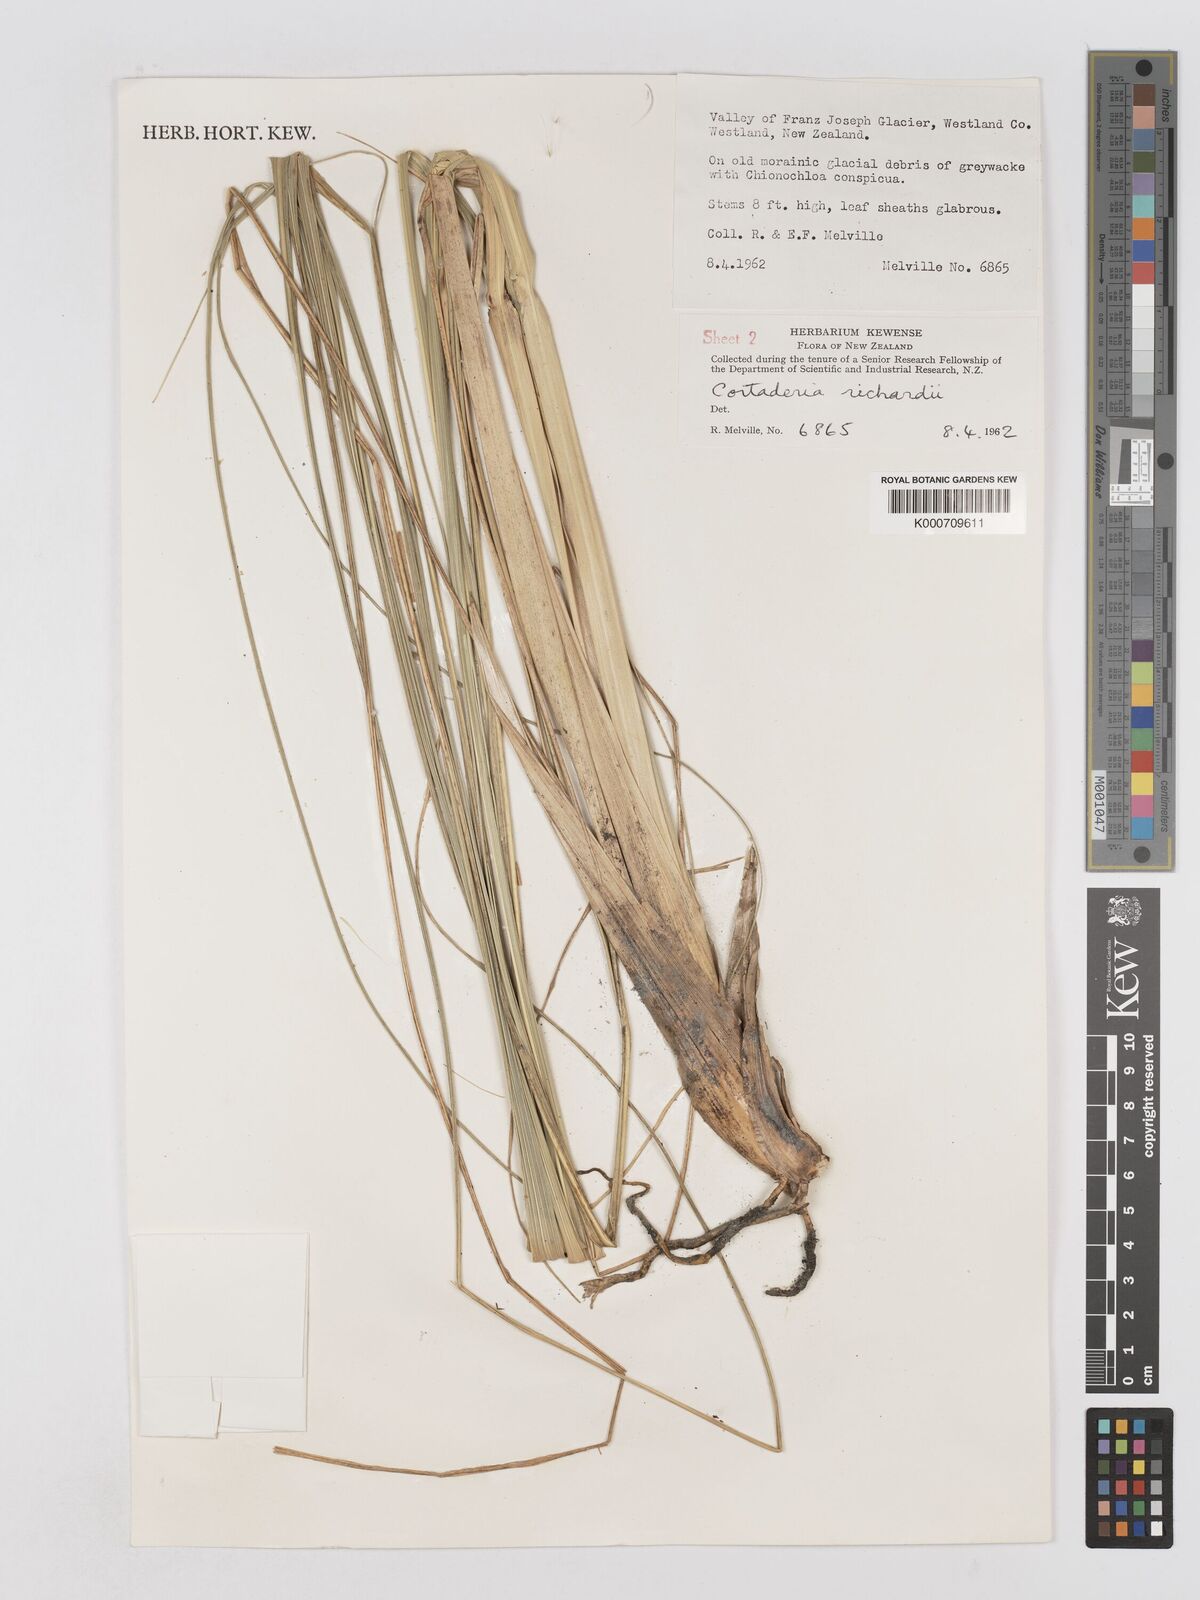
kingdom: Plantae
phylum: Tracheophyta
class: Liliopsida
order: Poales
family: Poaceae
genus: Austroderia
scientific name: Austroderia richardii
